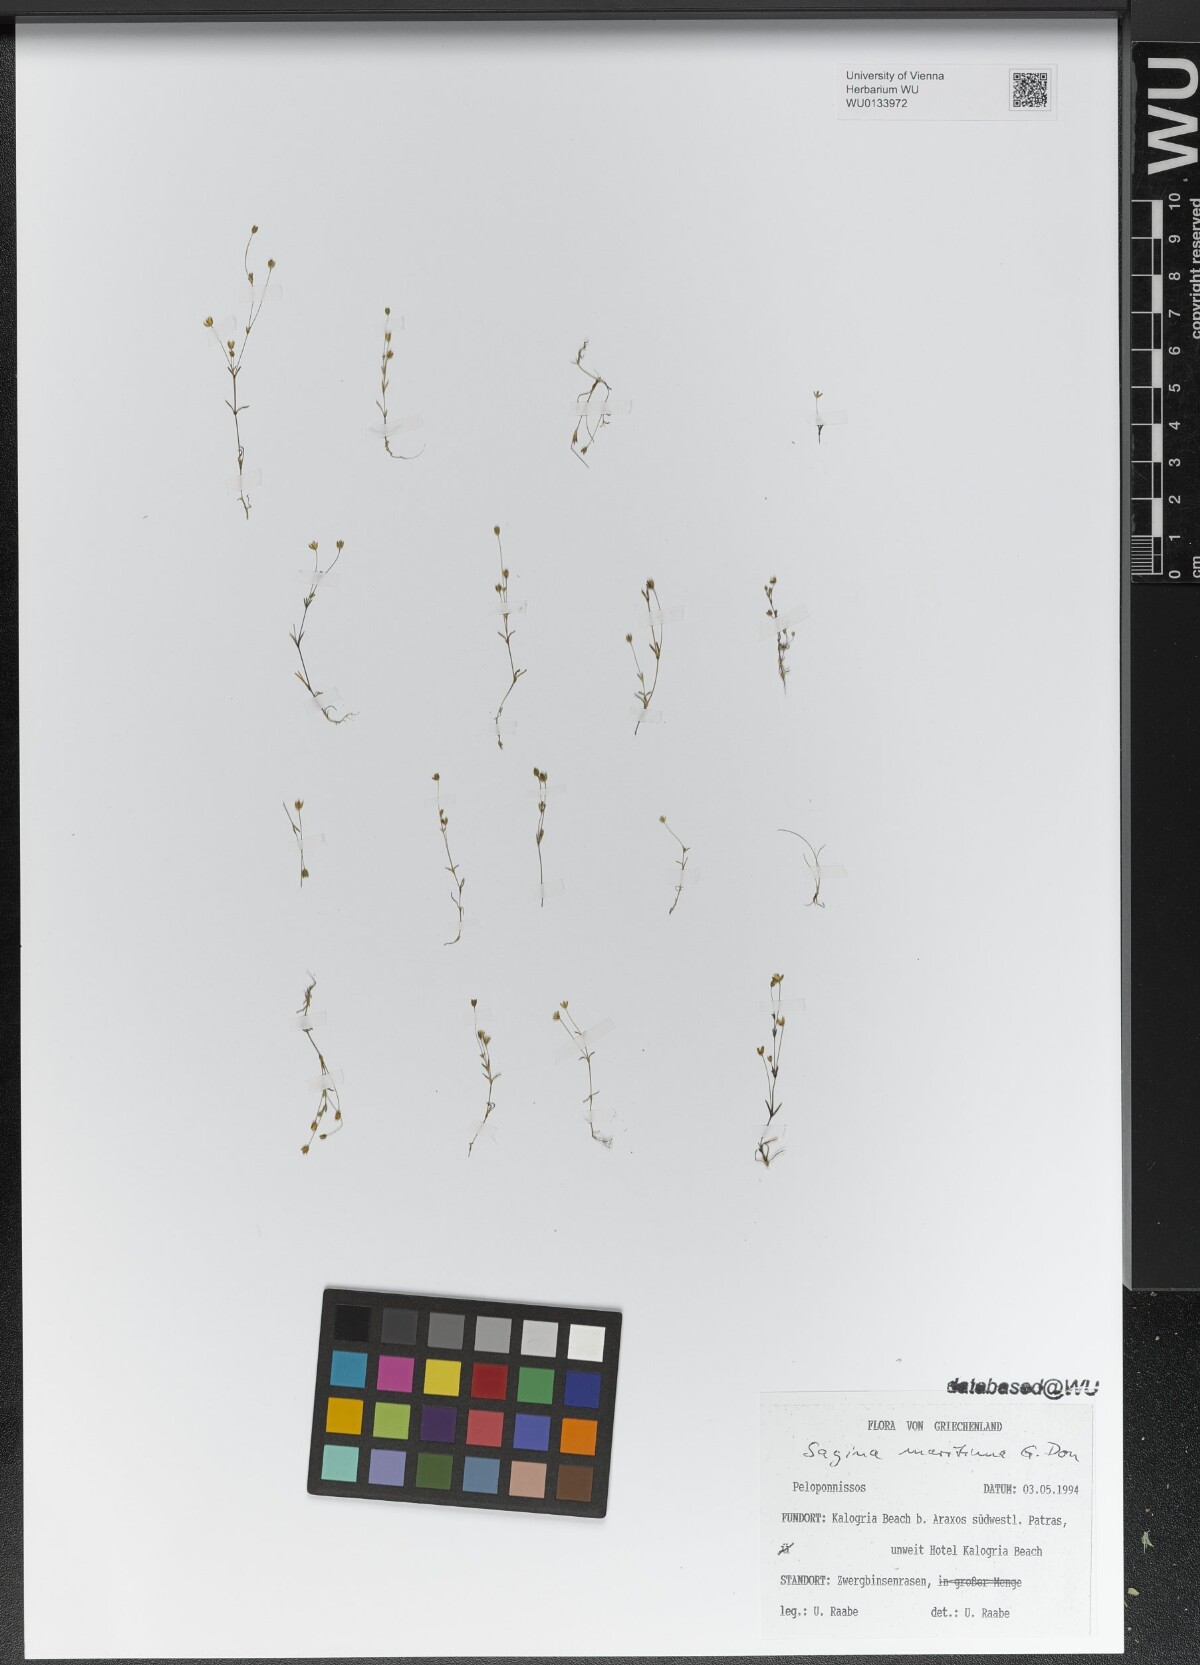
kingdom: Plantae
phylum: Tracheophyta
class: Magnoliopsida
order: Caryophyllales
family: Caryophyllaceae
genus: Sagina
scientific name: Sagina maritima
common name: Sea pearlwort
